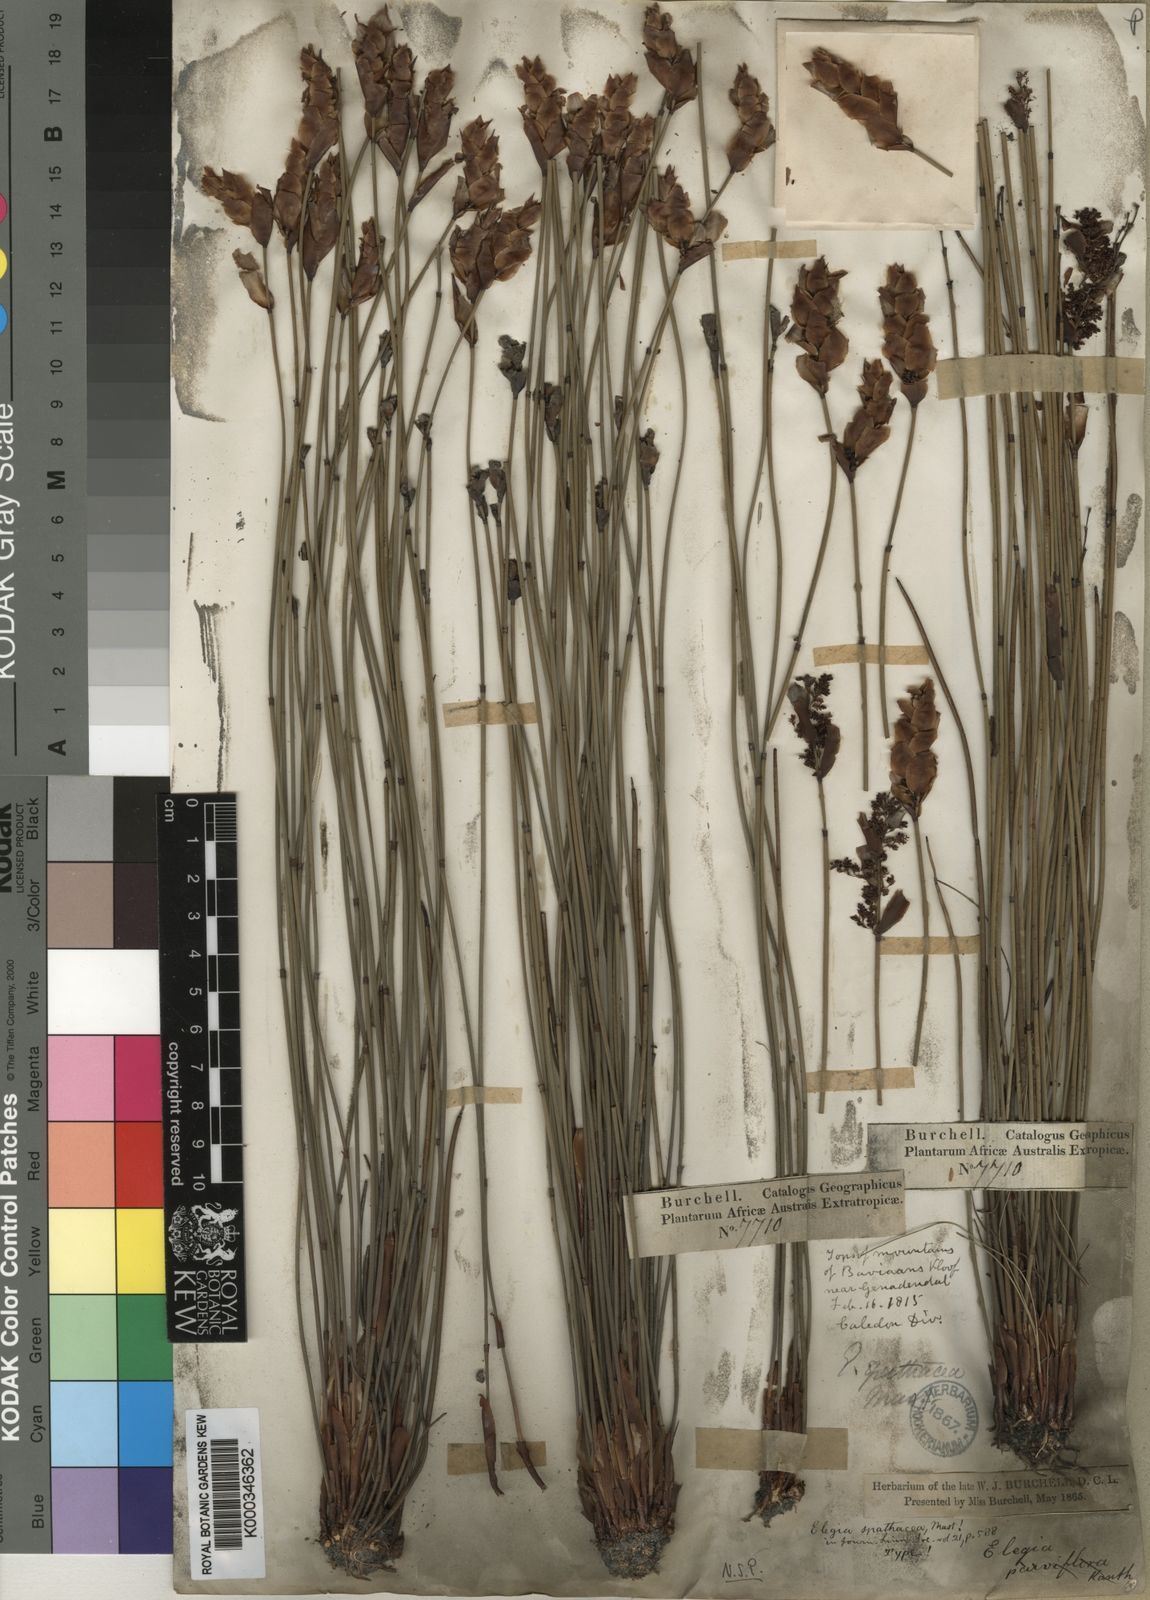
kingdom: Plantae
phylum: Tracheophyta
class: Liliopsida
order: Poales
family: Restionaceae
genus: Elegia
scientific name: Elegia spathacea
